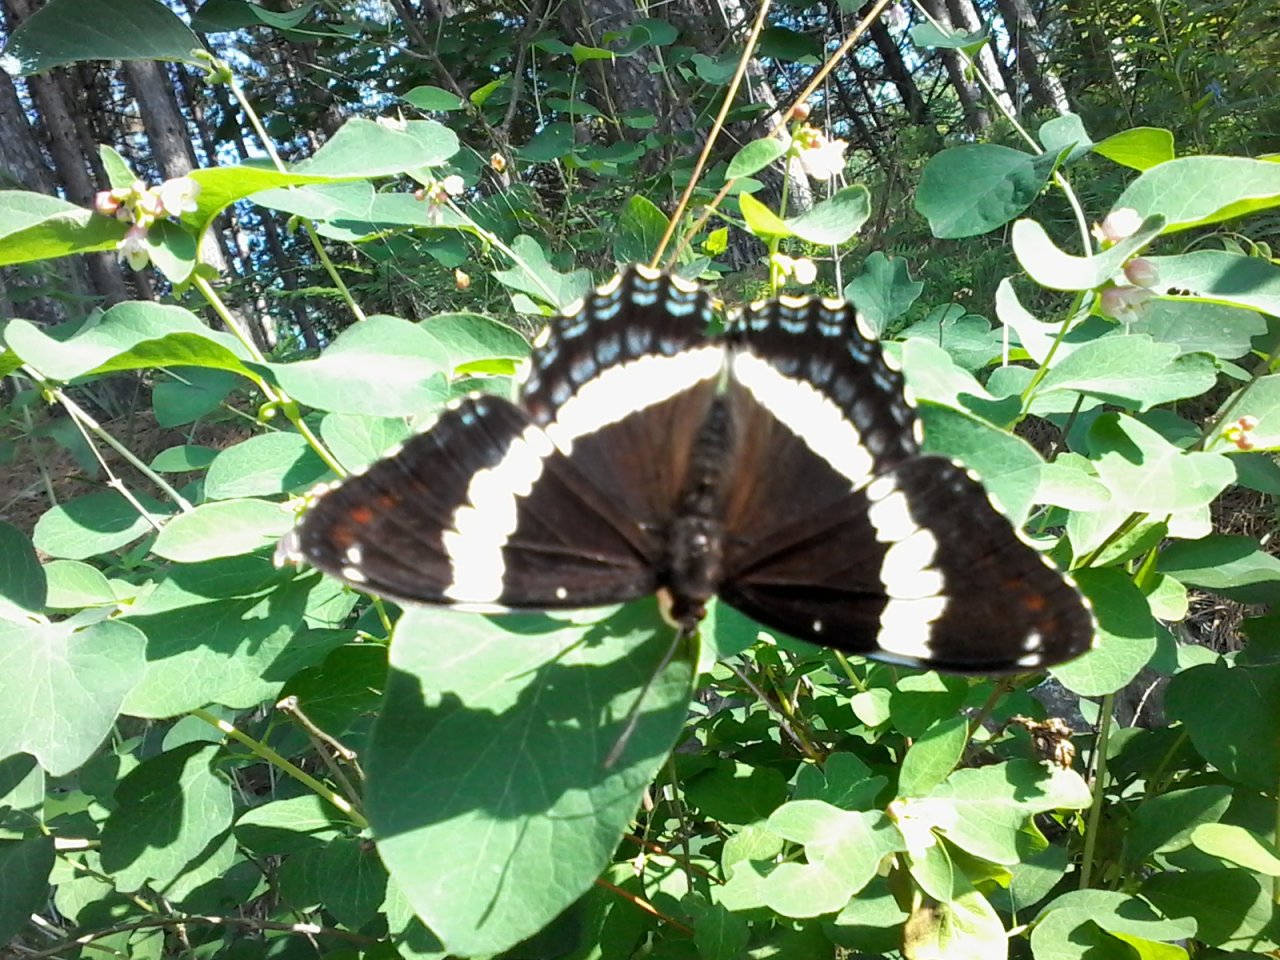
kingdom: Animalia
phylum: Arthropoda
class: Insecta
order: Lepidoptera
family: Nymphalidae
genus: Limenitis
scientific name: Limenitis arthemis
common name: Red-spotted Admiral
